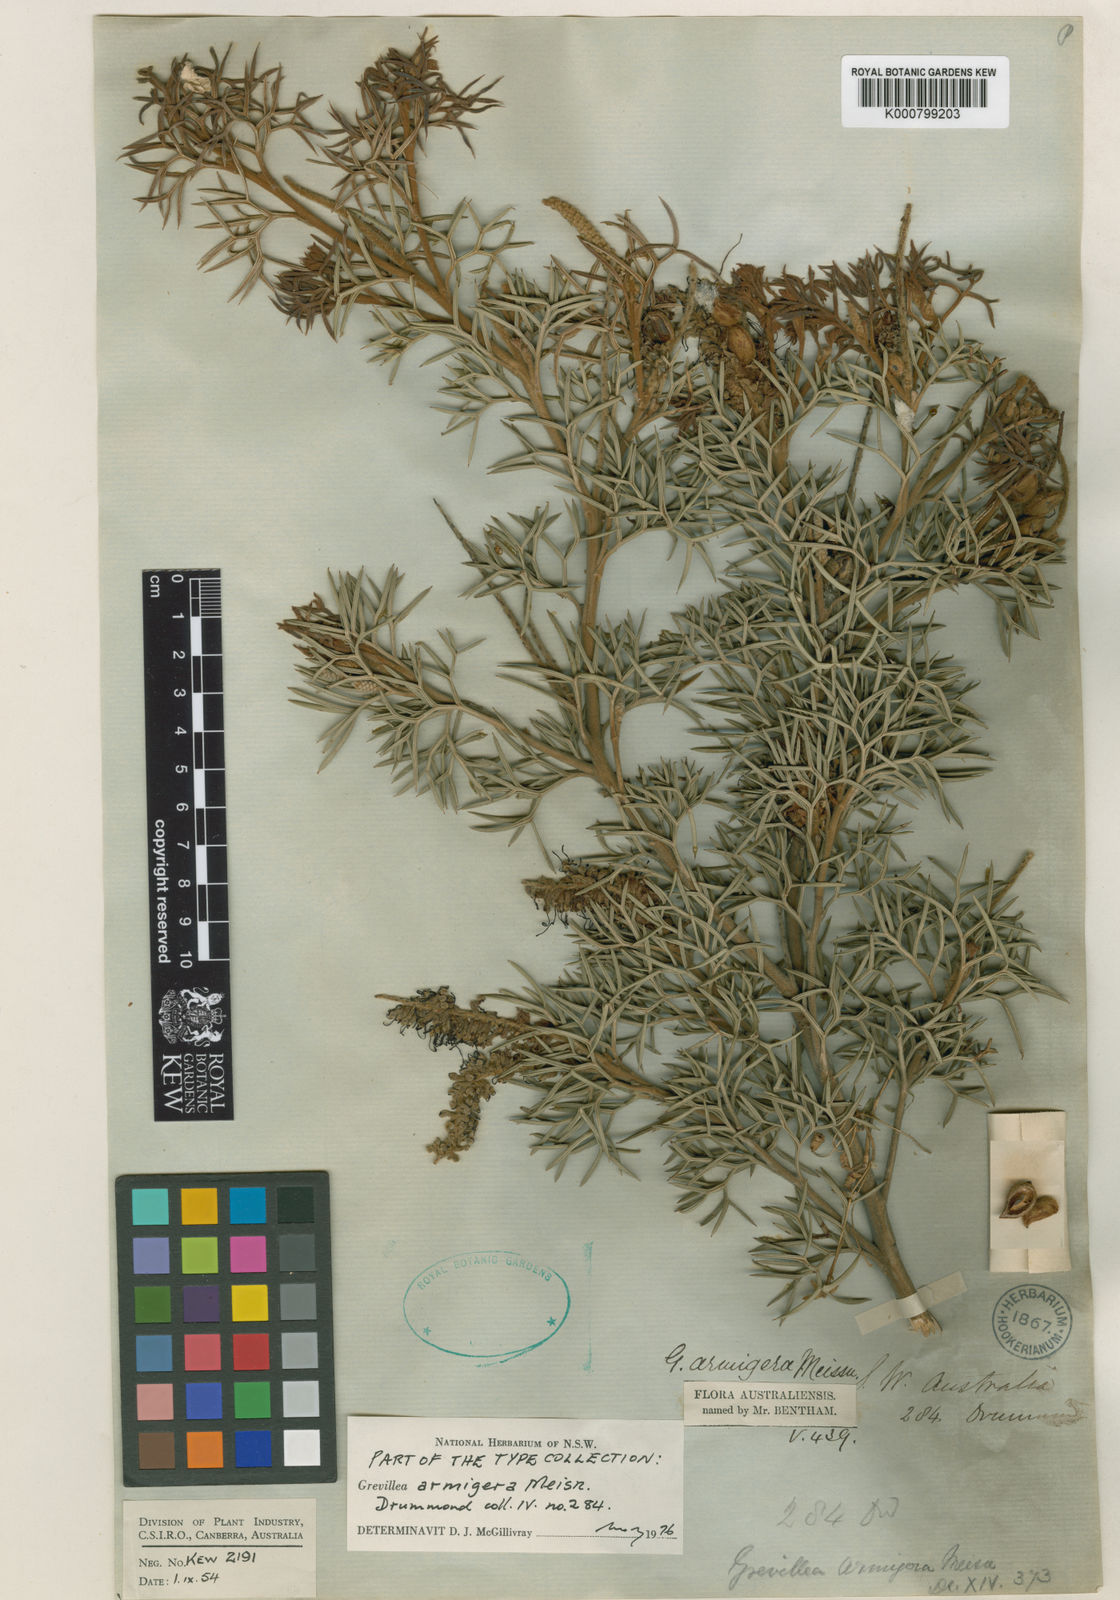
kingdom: Plantae
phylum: Tracheophyta
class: Magnoliopsida
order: Proteales
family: Proteaceae
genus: Grevillea
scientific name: Grevillea armigera
